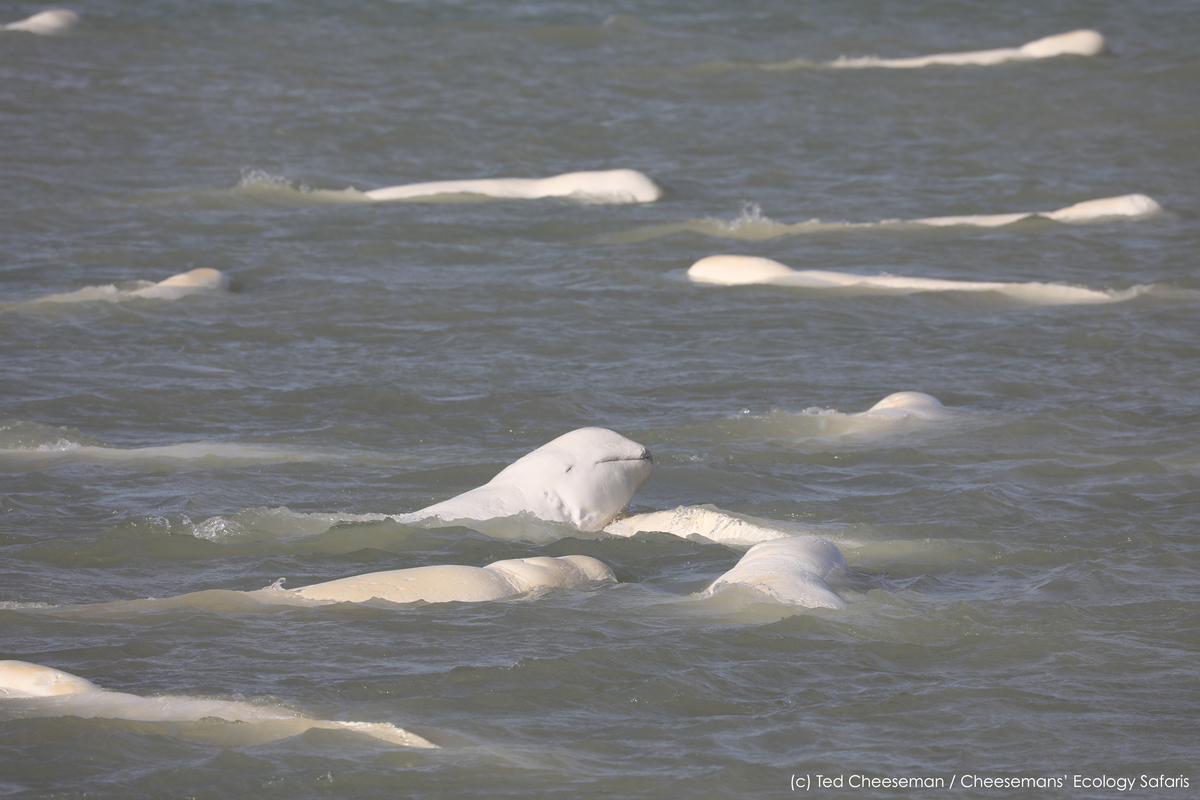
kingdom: Animalia
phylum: Chordata
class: Mammalia
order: Cetacea
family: Monodontidae
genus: Delphinapterus
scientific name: Delphinapterus leucas
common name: Beluga
